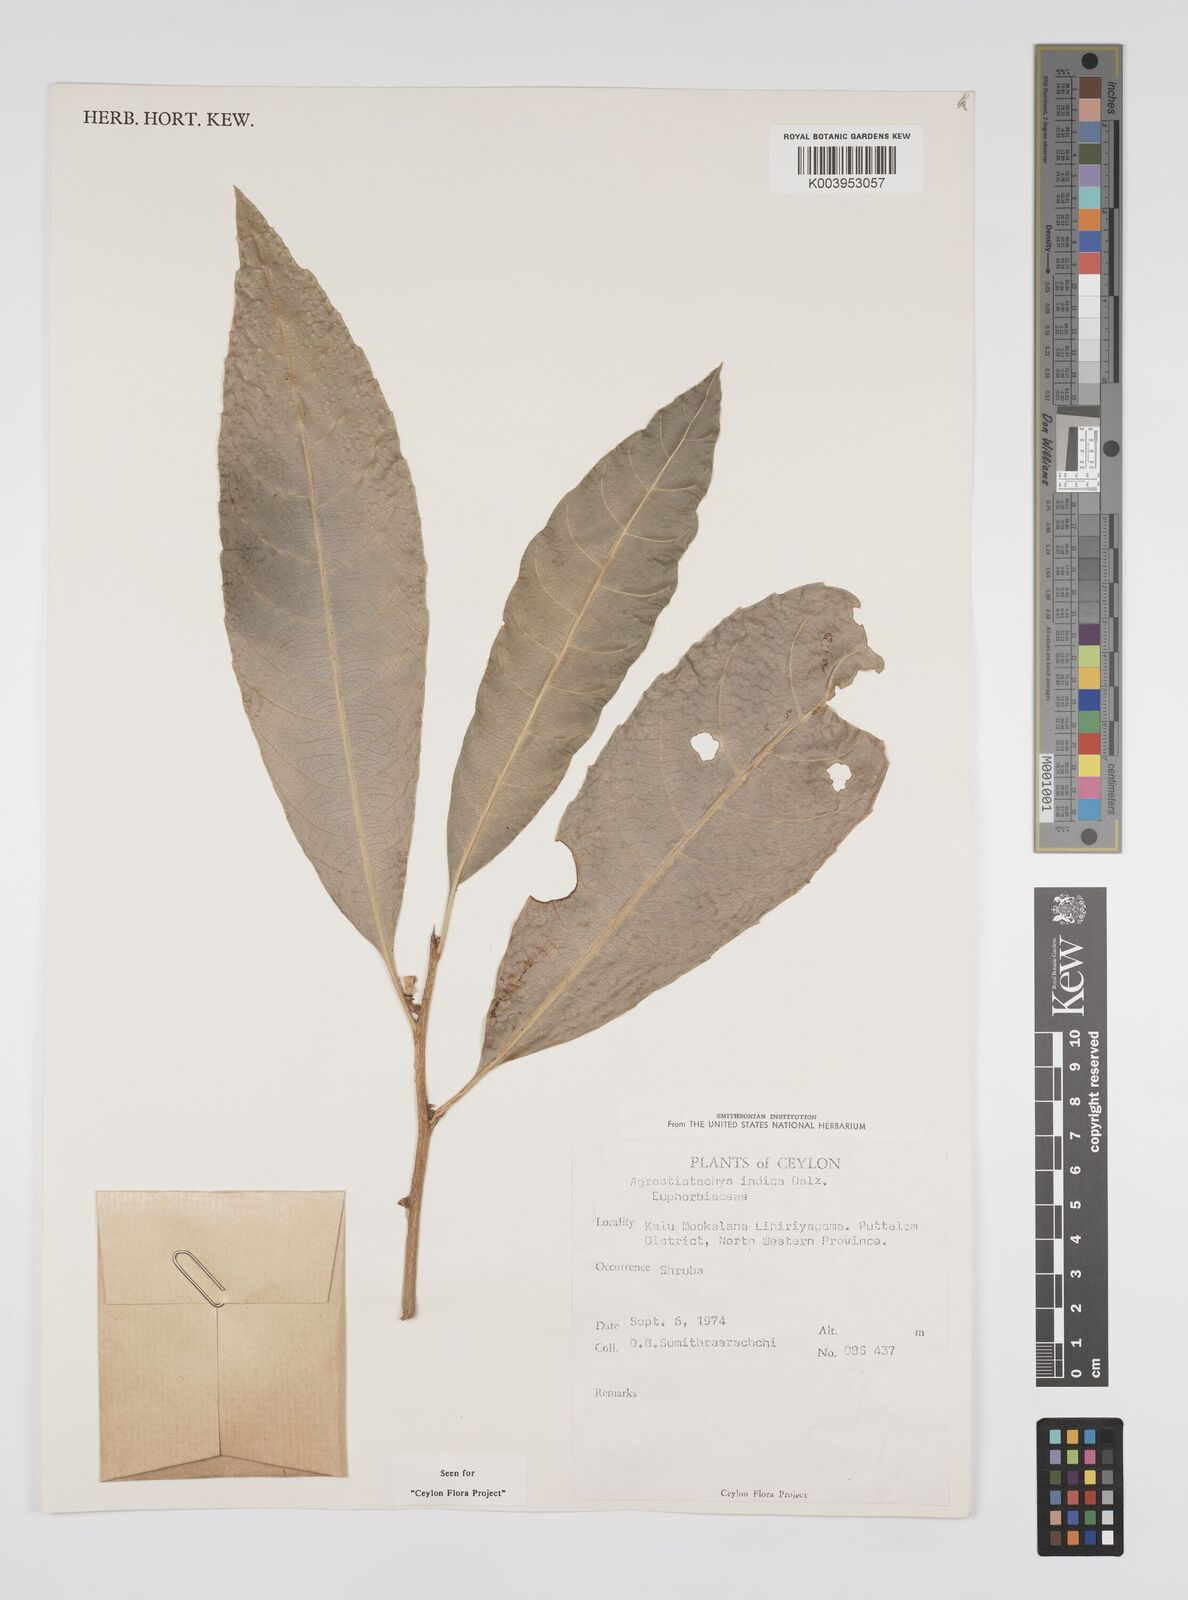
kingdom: Plantae
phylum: Tracheophyta
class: Magnoliopsida
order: Malpighiales
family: Euphorbiaceae
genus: Agrostistachys
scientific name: Agrostistachys indica
